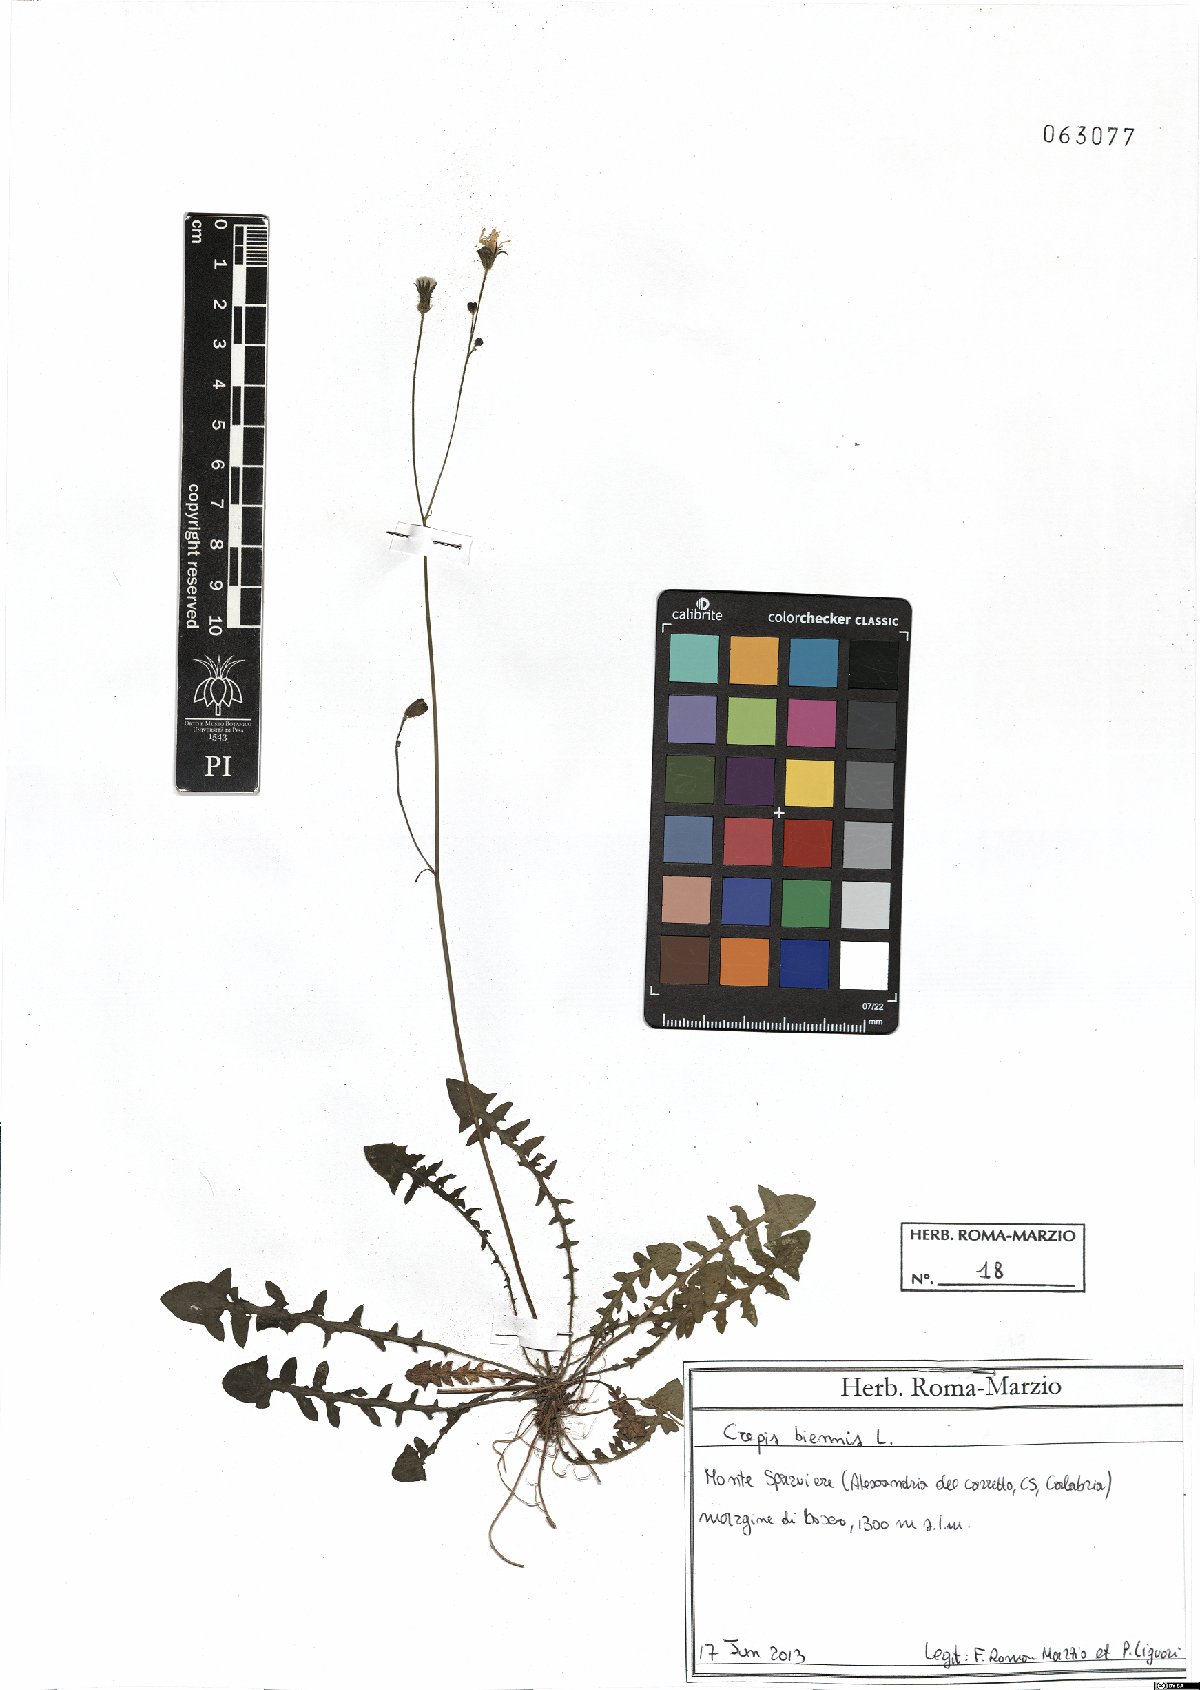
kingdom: Plantae
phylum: Tracheophyta
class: Magnoliopsida
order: Asterales
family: Asteraceae
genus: Crepis
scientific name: Crepis biennis
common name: Rough hawk's-beard
